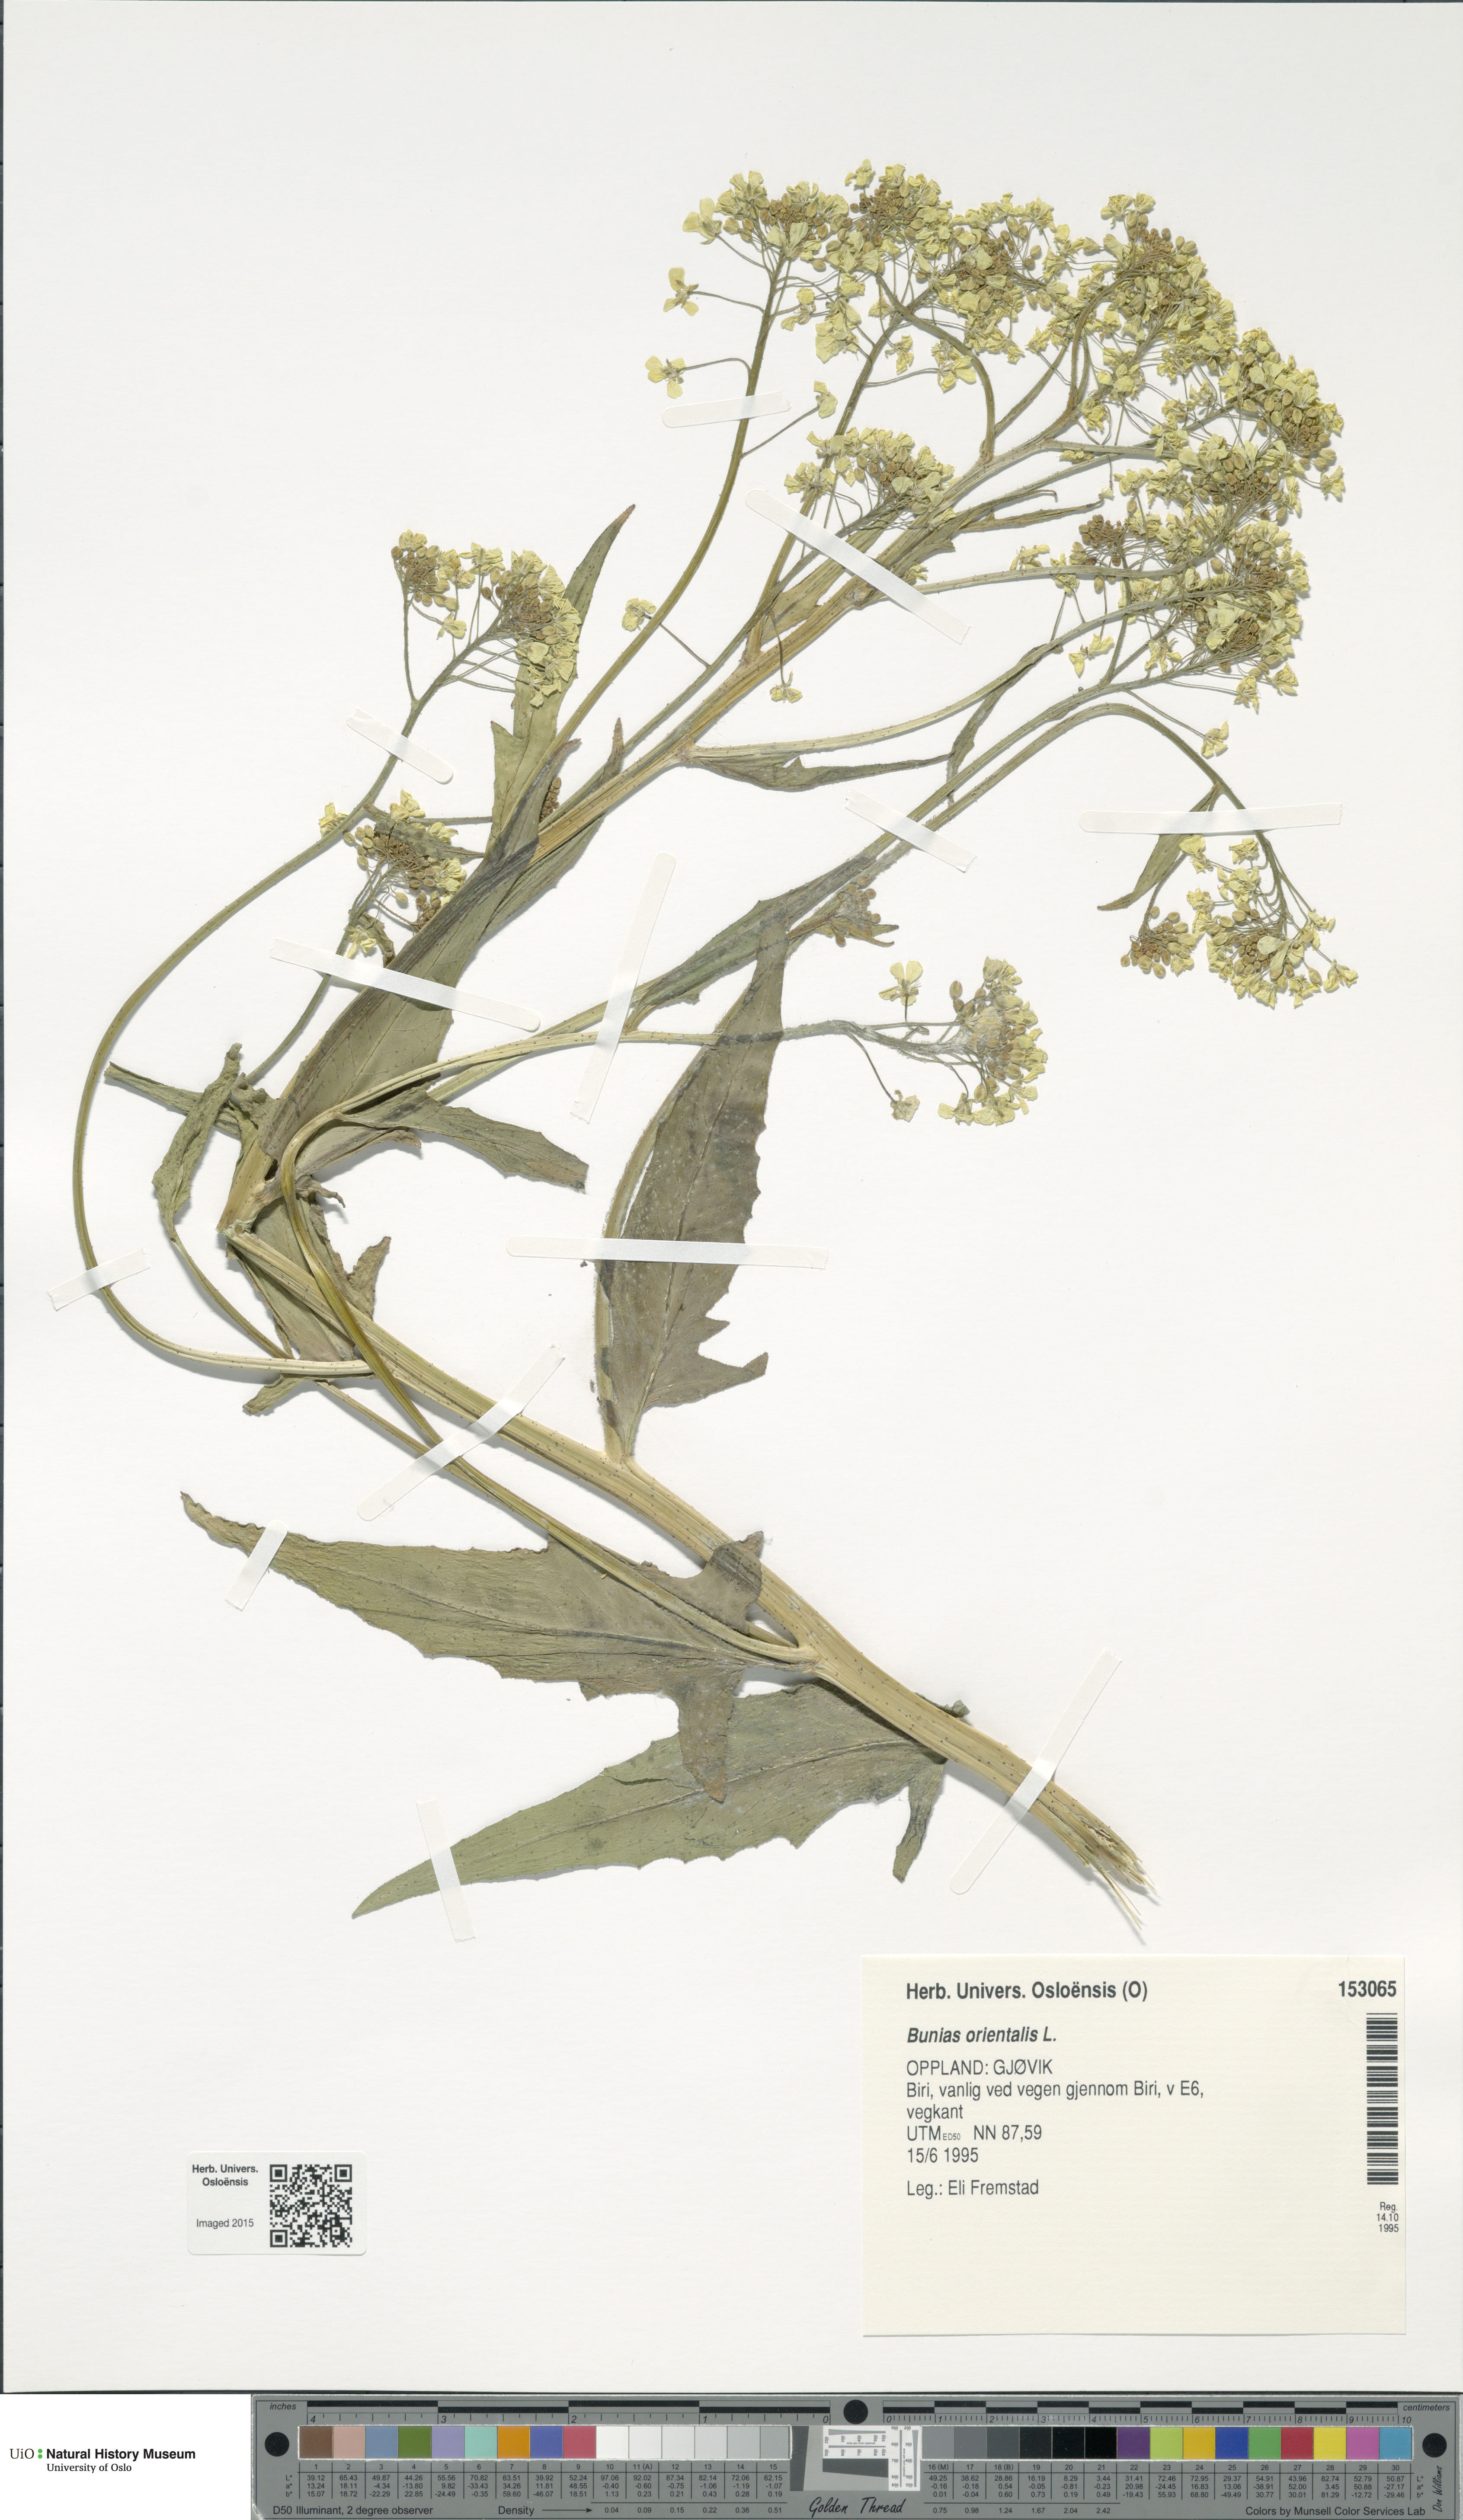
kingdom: Plantae
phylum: Tracheophyta
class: Magnoliopsida
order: Brassicales
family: Brassicaceae
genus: Bunias
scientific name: Bunias orientalis
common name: Warty-cabbage
